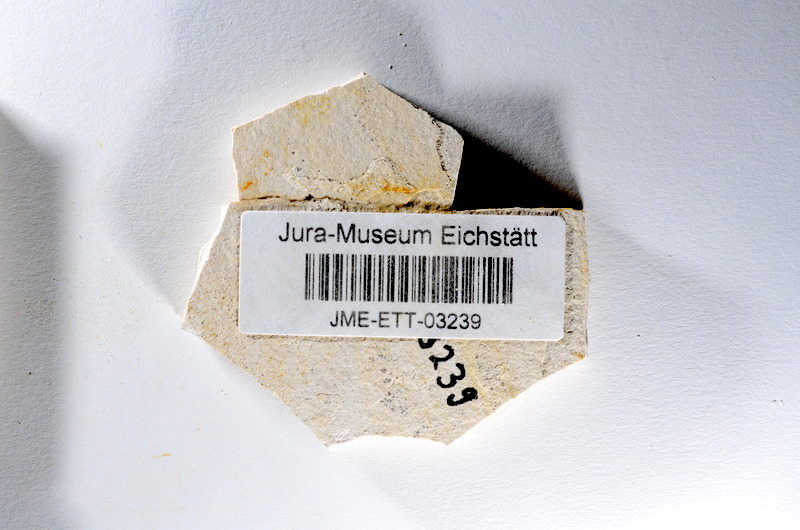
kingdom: Animalia
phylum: Chordata
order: Salmoniformes
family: Orthogonikleithridae
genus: Orthogonikleithrus
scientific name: Orthogonikleithrus hoelli
